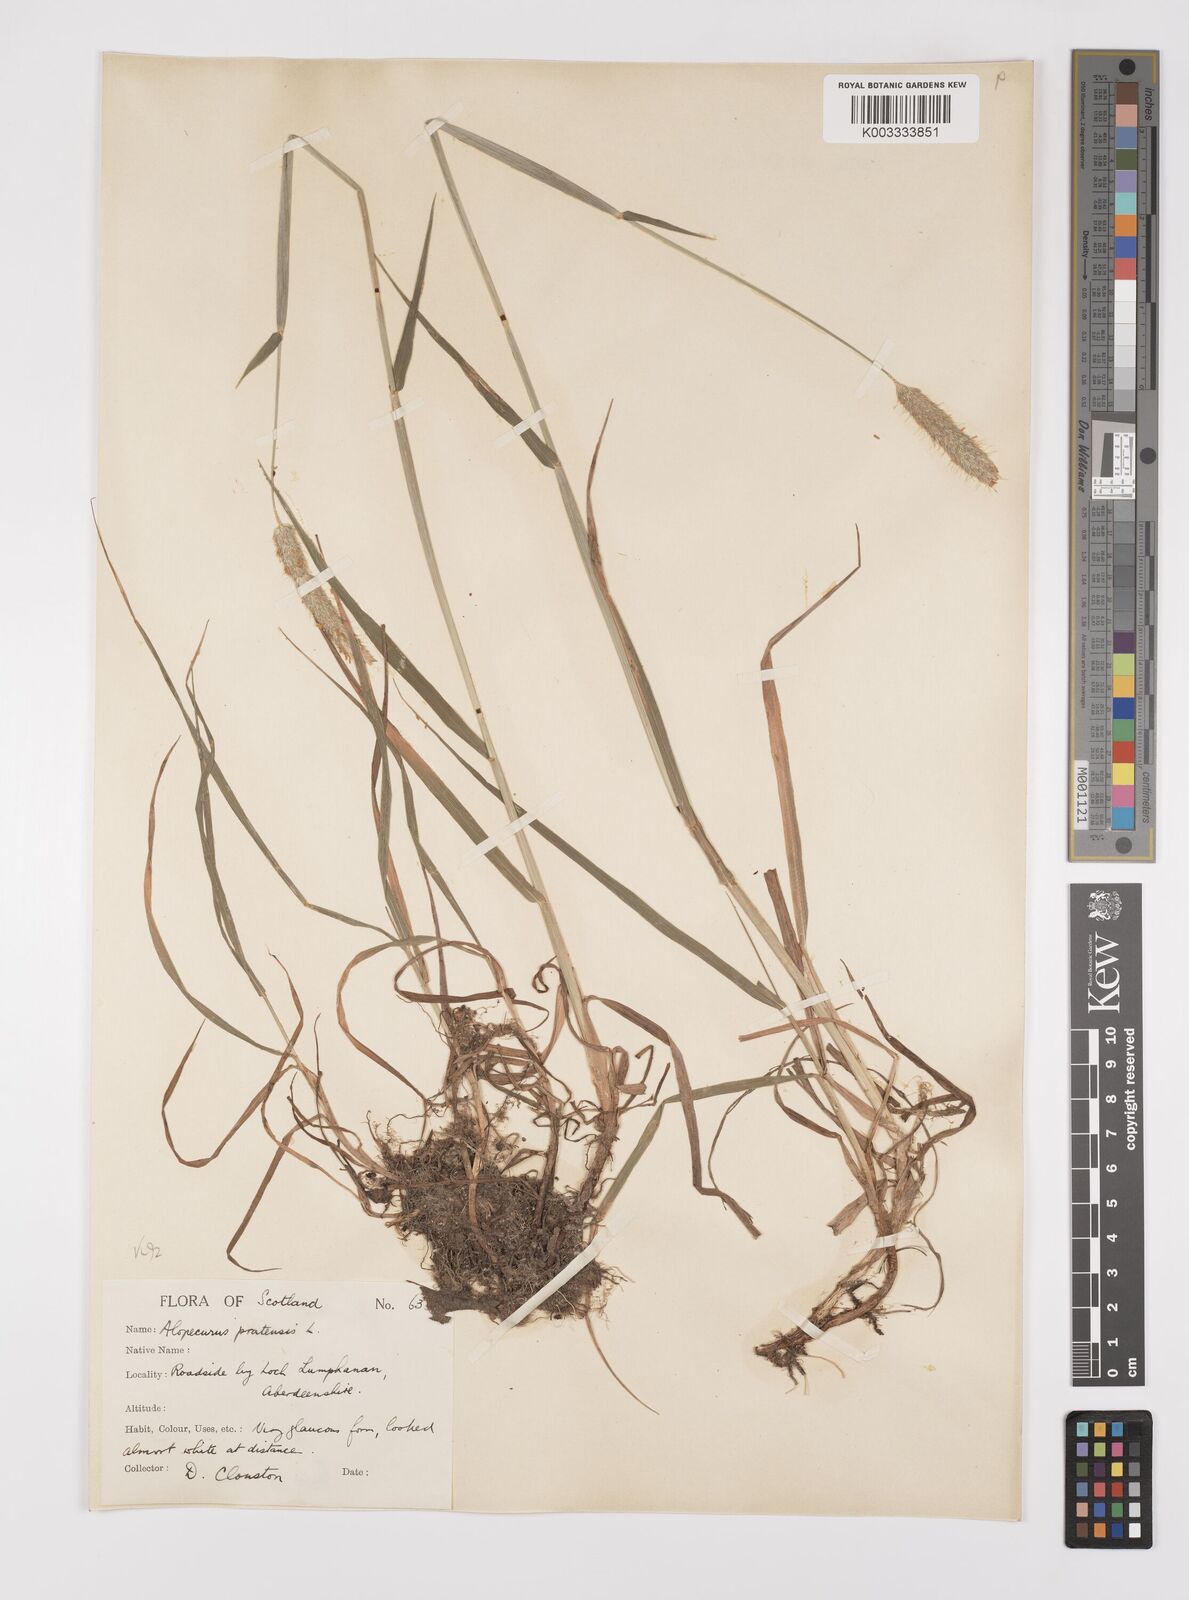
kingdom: Plantae
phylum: Tracheophyta
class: Liliopsida
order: Poales
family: Poaceae
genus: Alopecurus
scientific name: Alopecurus pratensis
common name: Meadow foxtail
